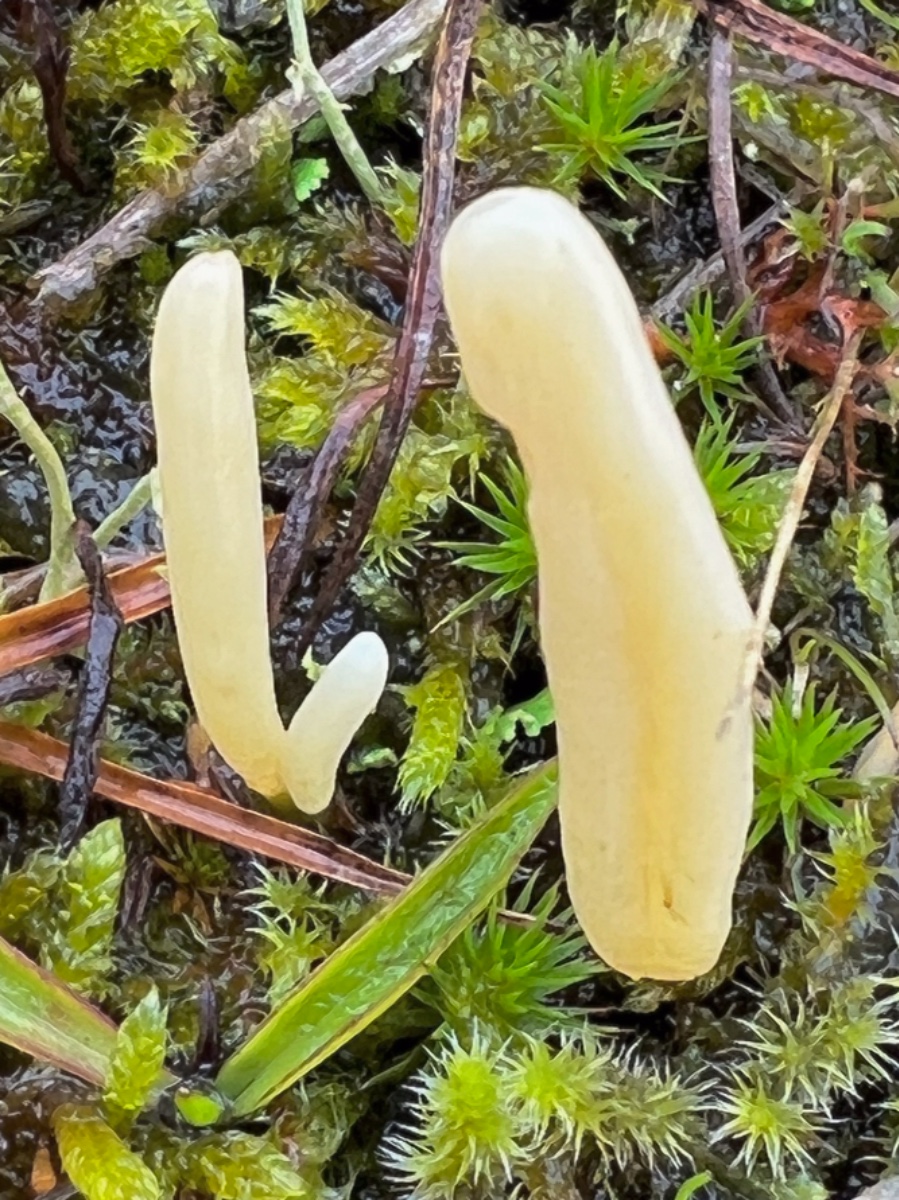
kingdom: Fungi
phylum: Basidiomycota
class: Agaricomycetes
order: Agaricales
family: Clavariaceae
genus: Clavaria
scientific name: Clavaria argillacea
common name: lerfarvet køllesvamp
